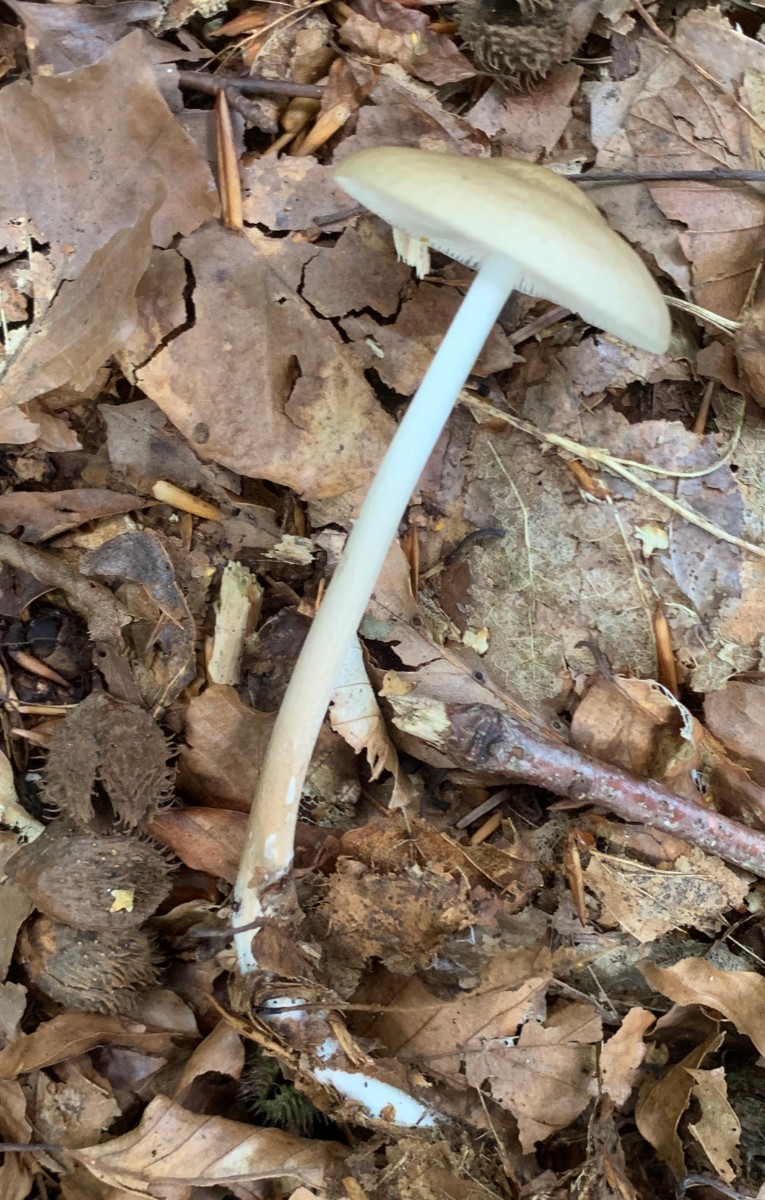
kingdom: Fungi
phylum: Basidiomycota
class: Agaricomycetes
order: Agaricales
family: Physalacriaceae
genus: Hymenopellis
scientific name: Hymenopellis radicata
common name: almindelig pælerodshat
